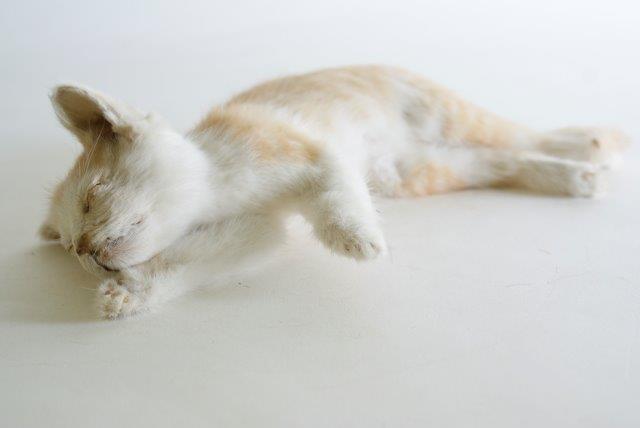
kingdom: Animalia
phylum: Chordata
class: Mammalia
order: Carnivora
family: Felidae
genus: Felis
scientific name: Felis catus
